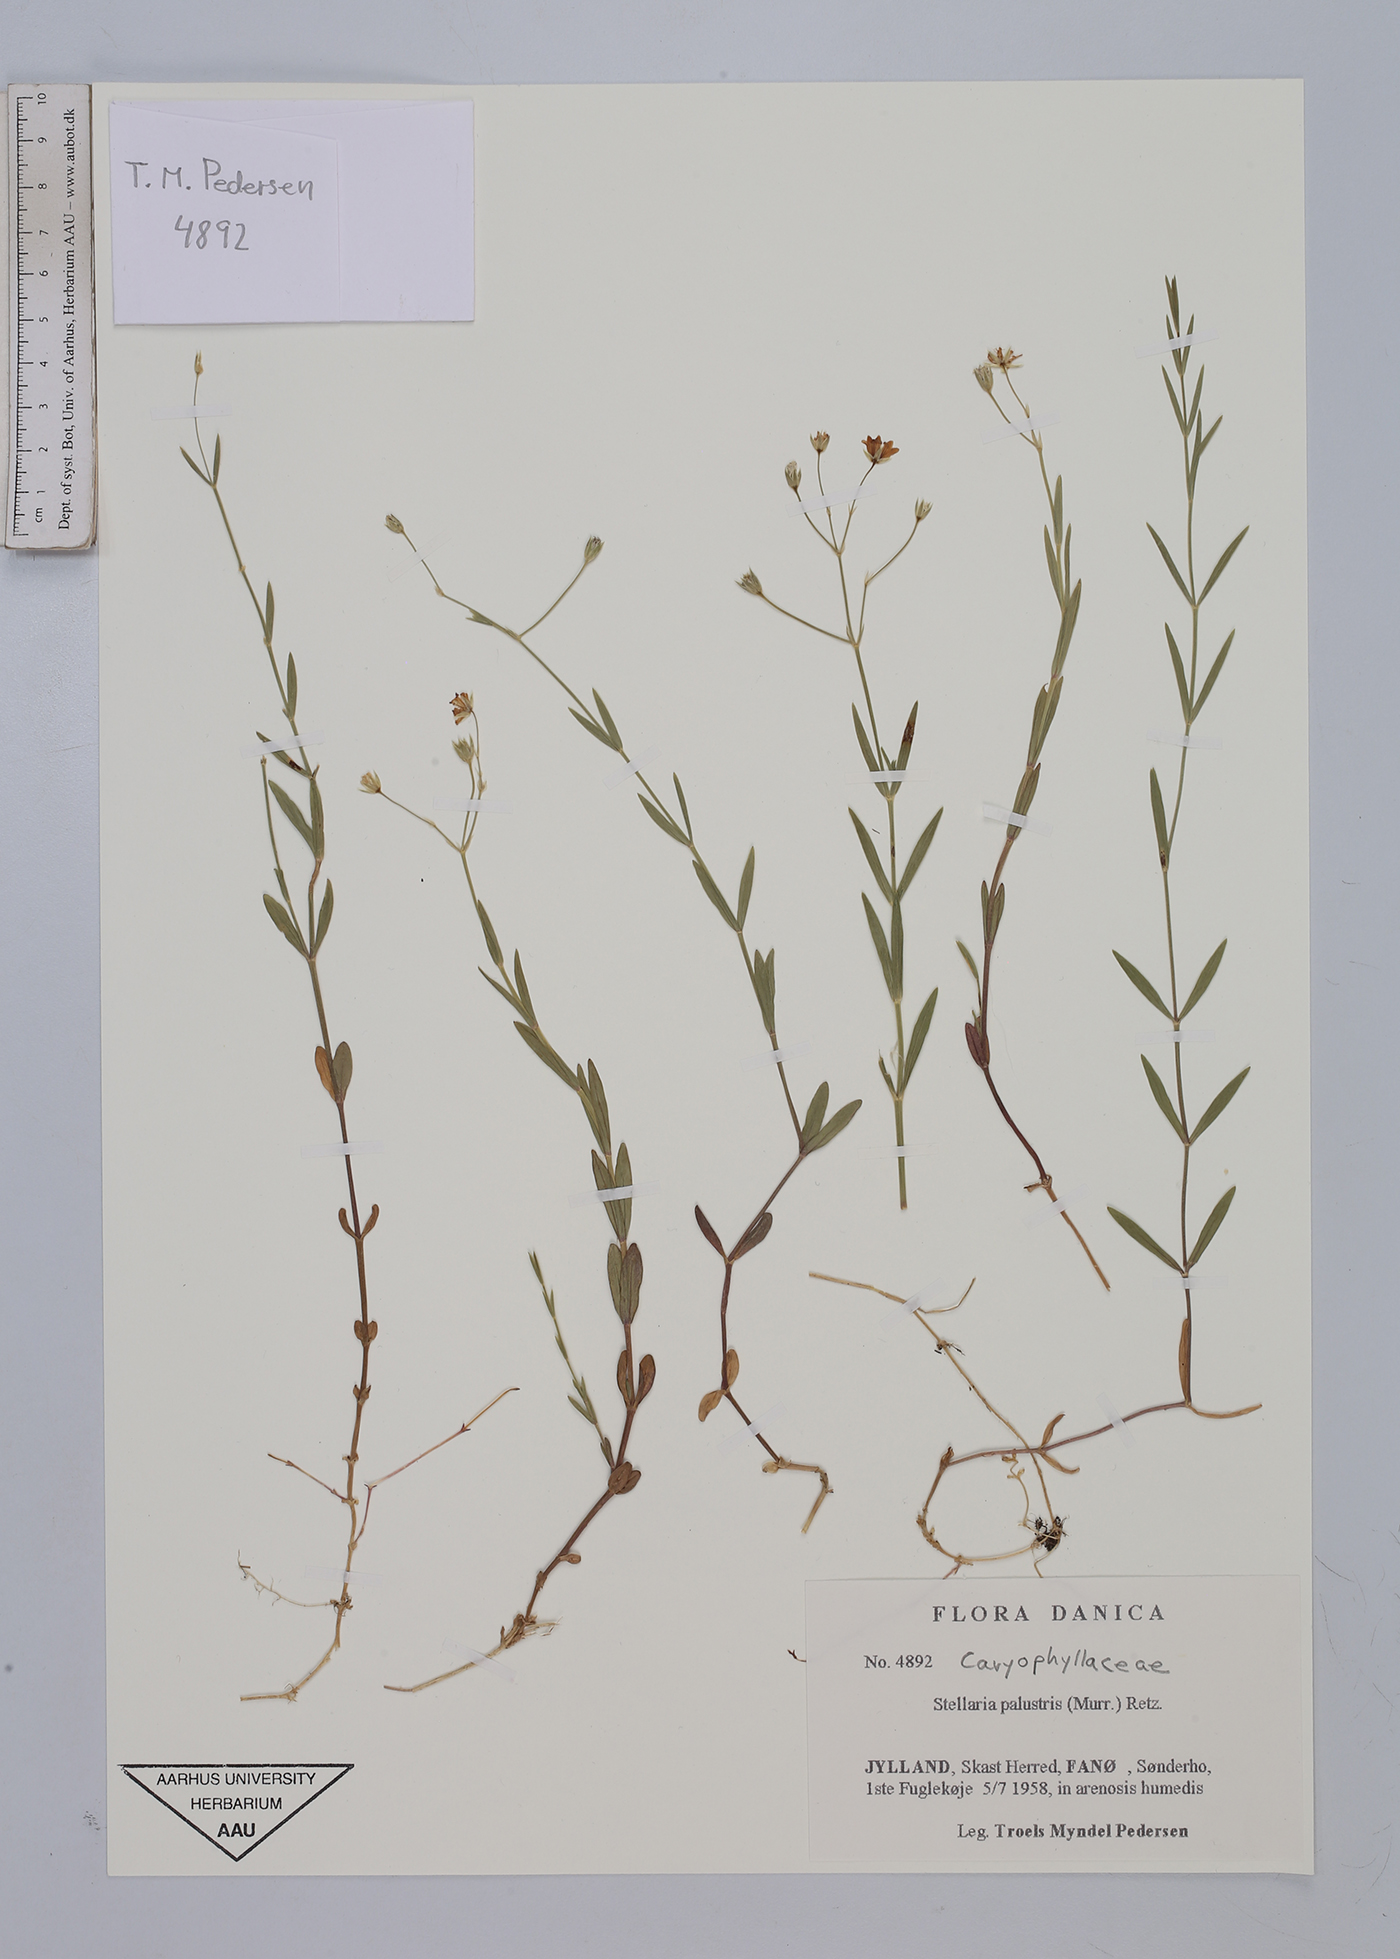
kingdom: Plantae
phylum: Tracheophyta
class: Magnoliopsida
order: Caryophyllales
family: Caryophyllaceae
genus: Stellaria
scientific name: Stellaria palustris
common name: Marsh stitchwort
